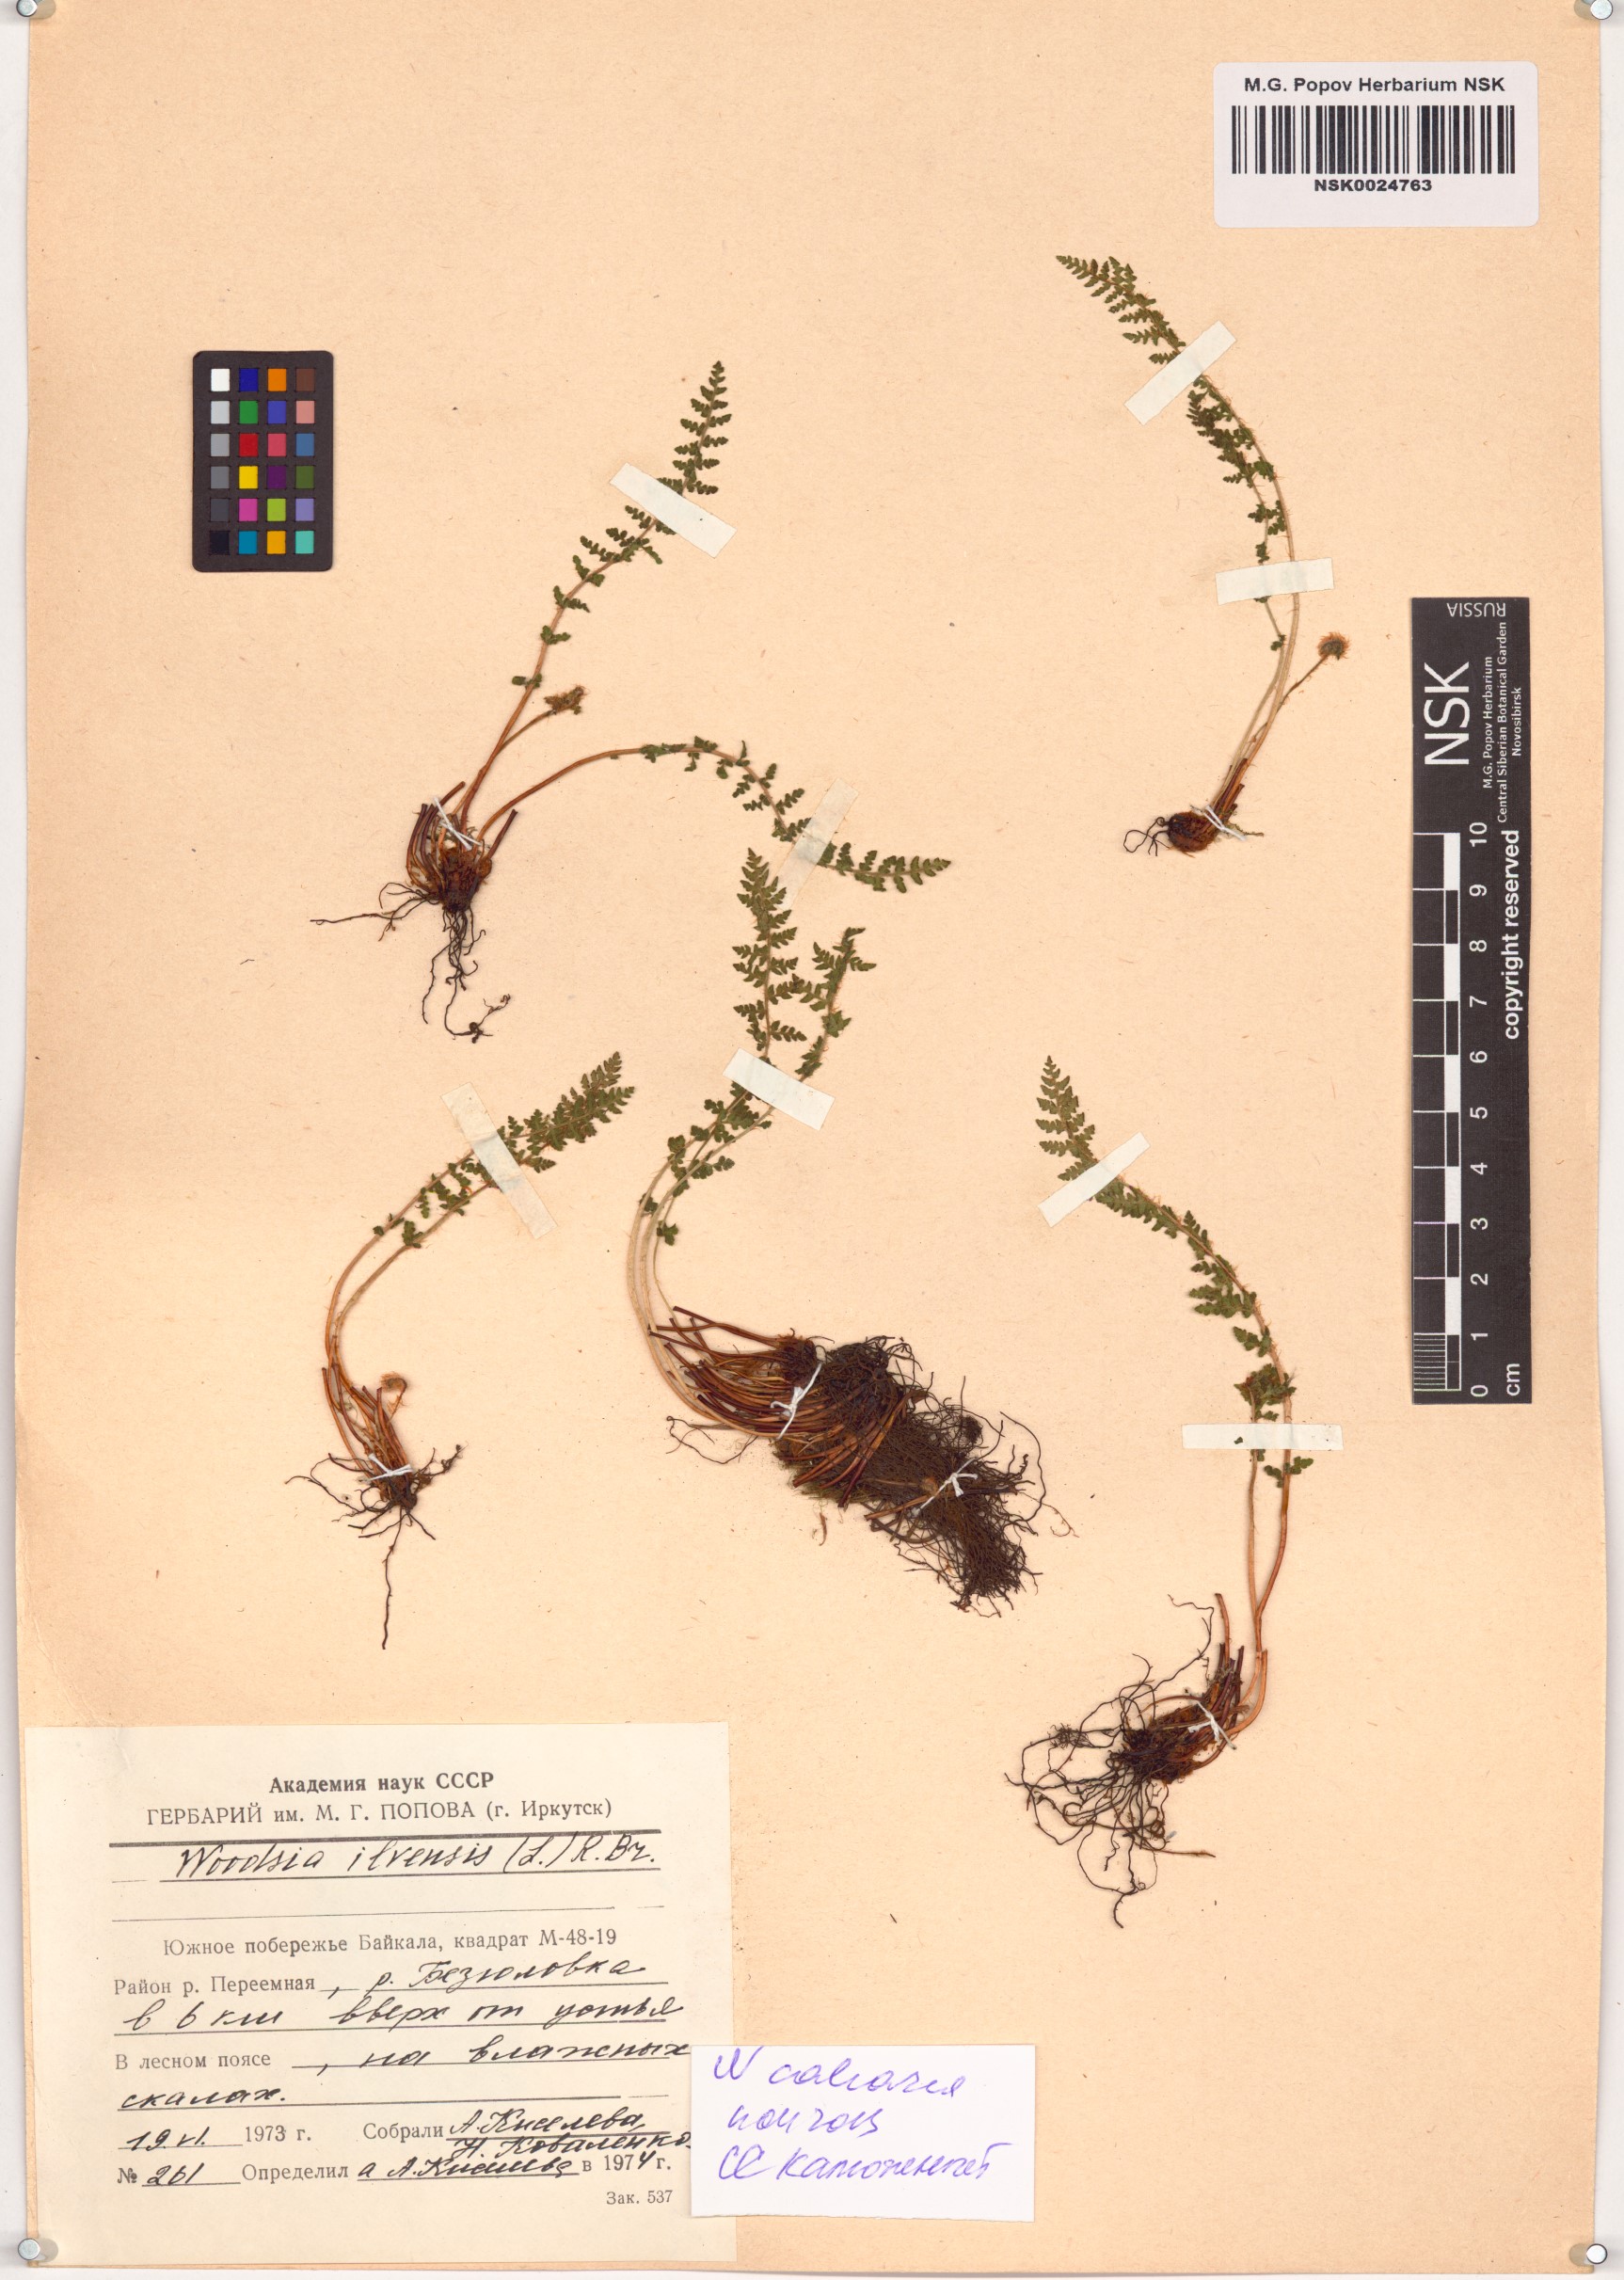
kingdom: Plantae
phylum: Tracheophyta
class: Polypodiopsida
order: Polypodiales
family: Woodsiaceae
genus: Woodsia
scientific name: Woodsia calcarea
